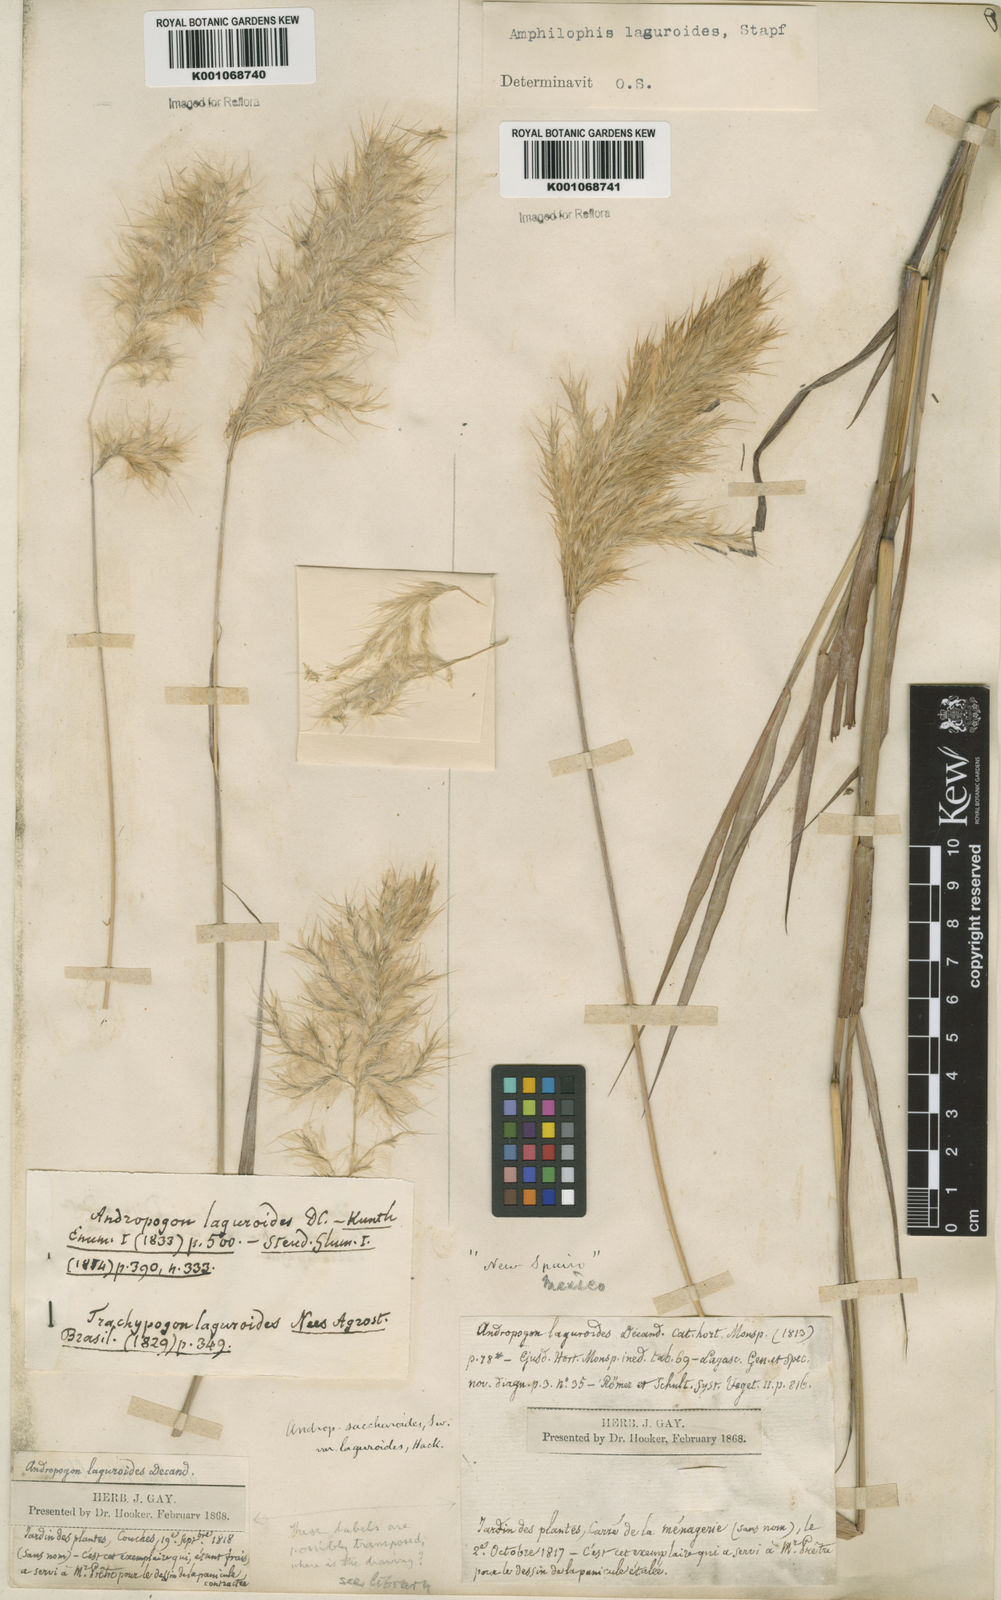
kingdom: Plantae
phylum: Tracheophyta
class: Liliopsida
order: Poales
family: Poaceae
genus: Bothriochloa
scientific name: Bothriochloa laguroides
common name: Silver bluestem
